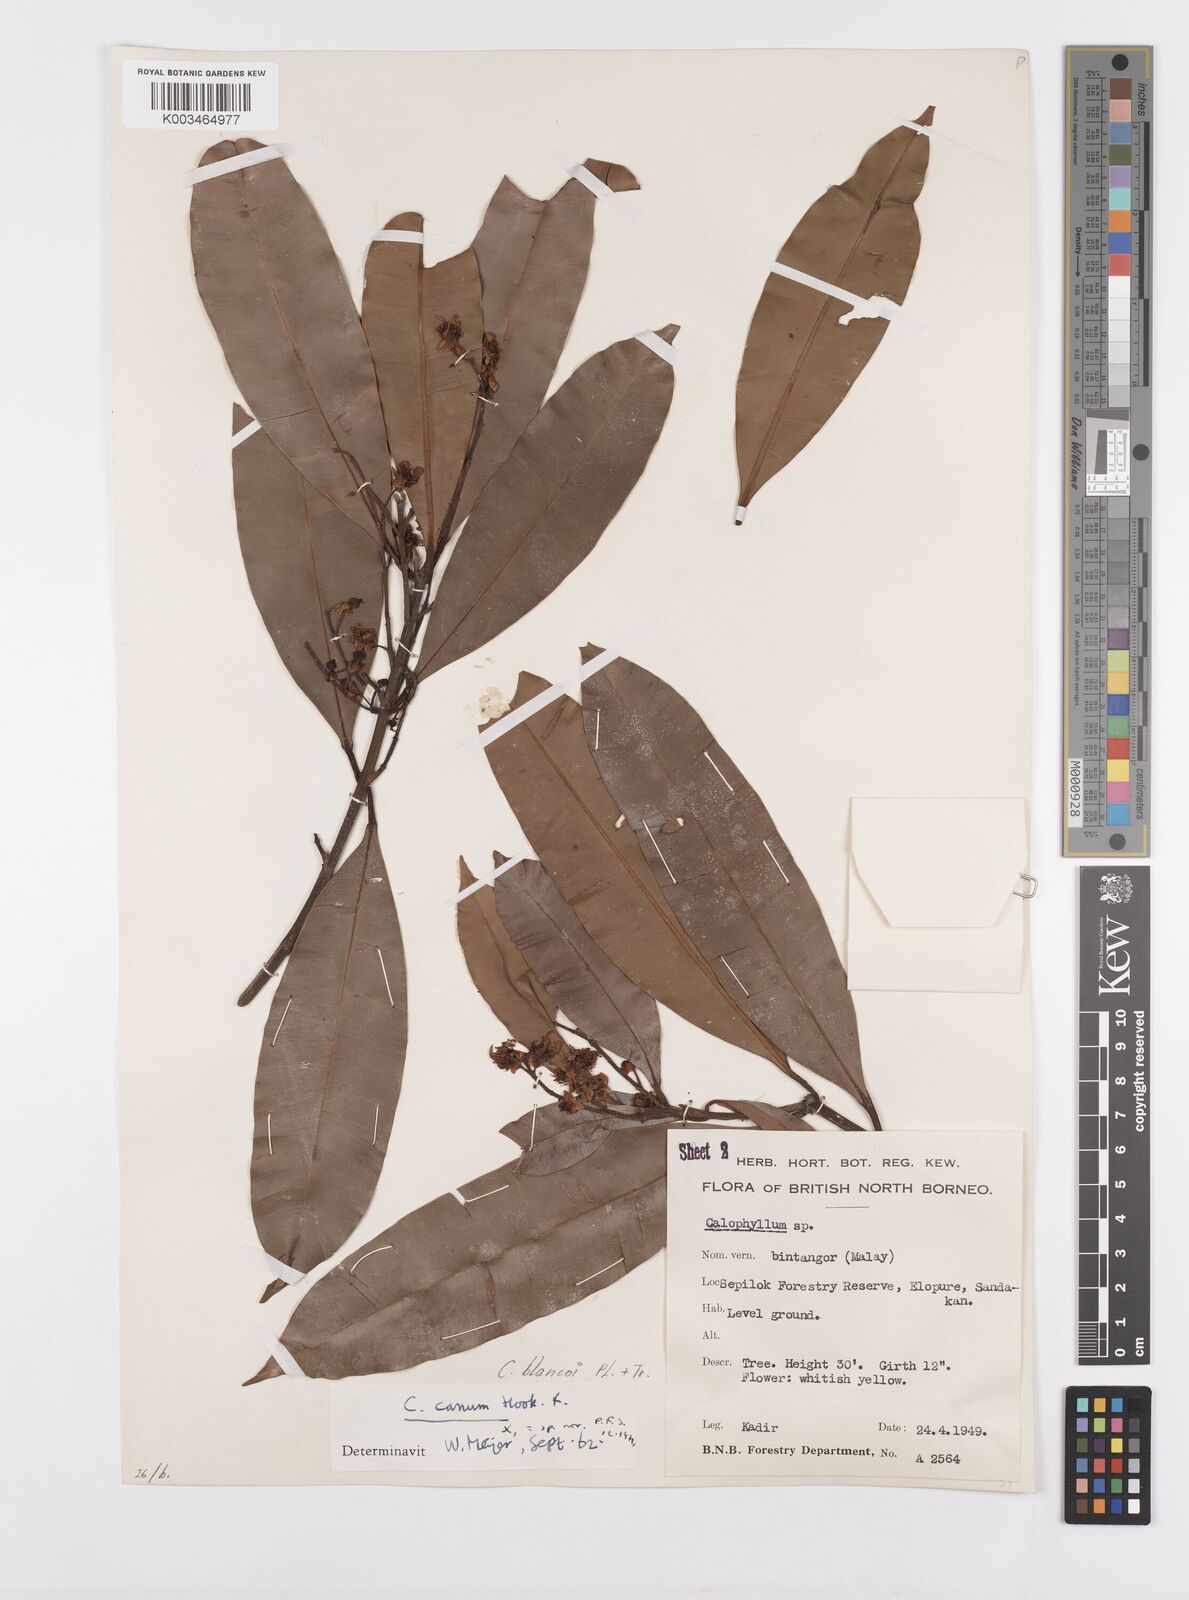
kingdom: Plantae
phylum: Tracheophyta
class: Magnoliopsida
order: Malpighiales
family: Calophyllaceae
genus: Calophyllum
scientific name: Calophyllum blancoi
